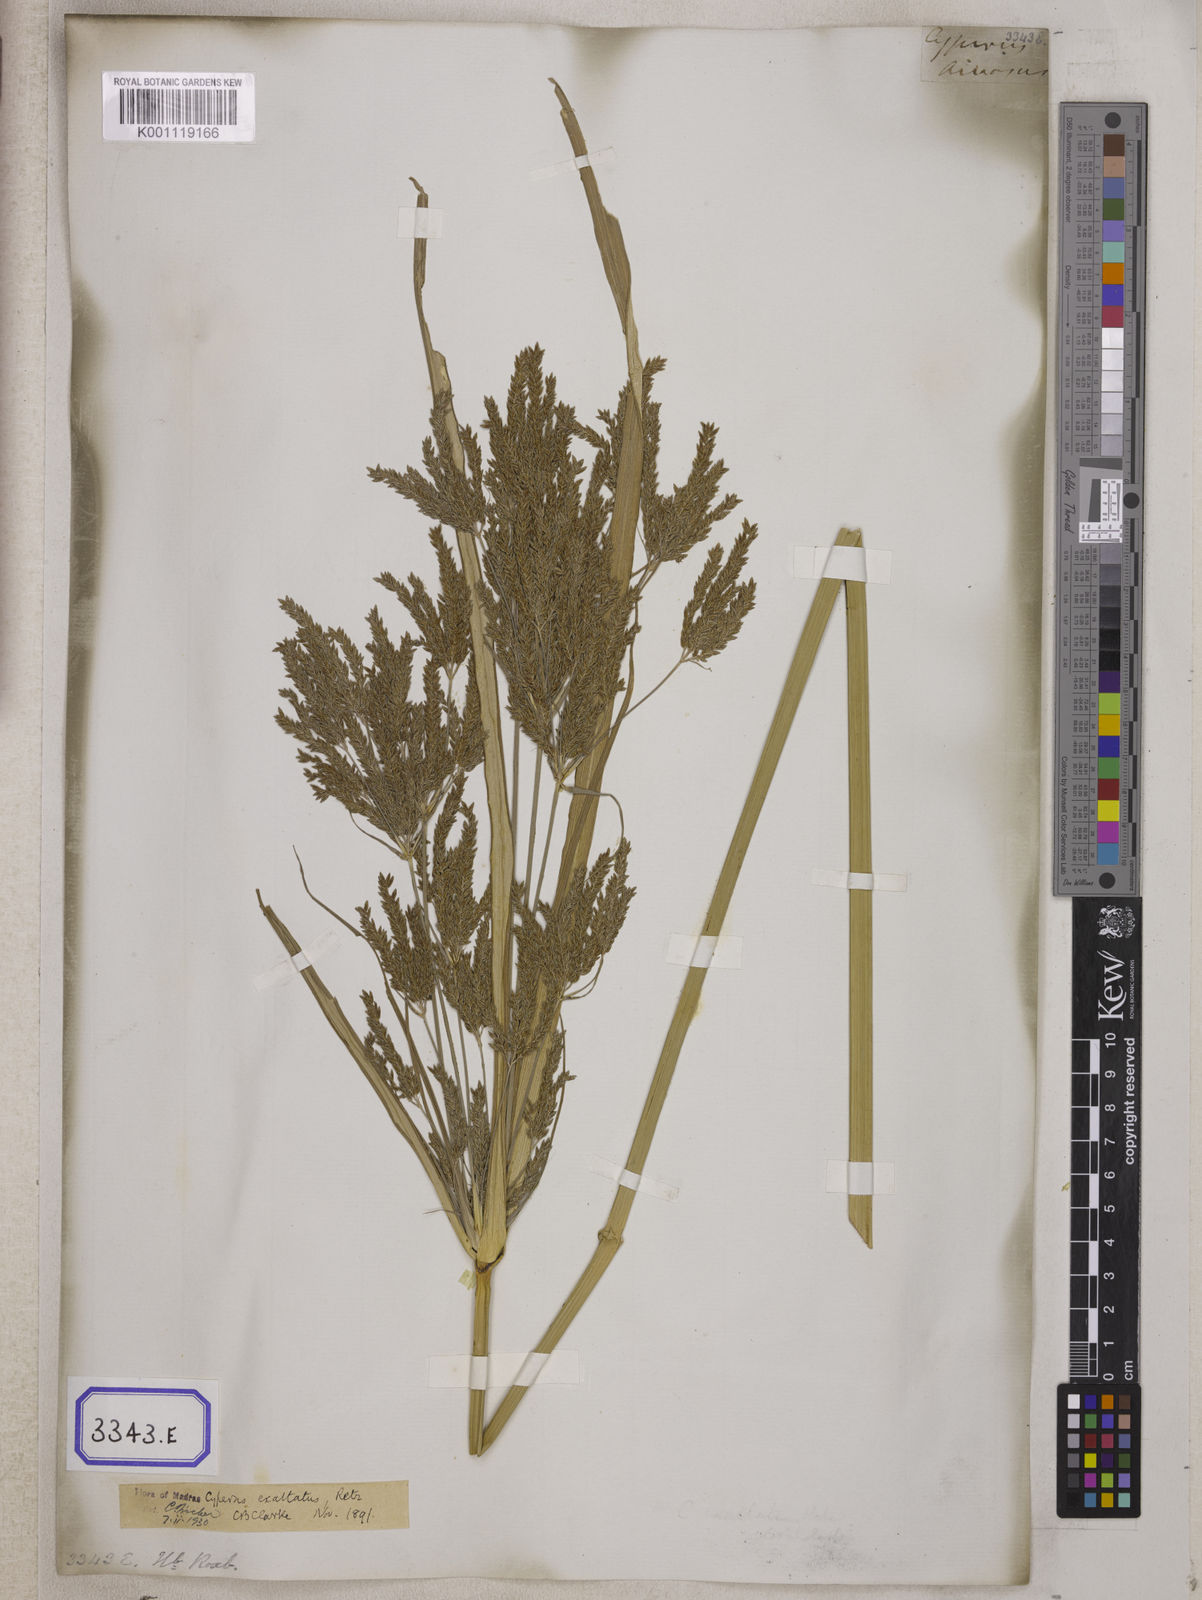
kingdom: Plantae
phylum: Tracheophyta
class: Liliopsida
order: Poales
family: Cyperaceae
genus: Cyperus
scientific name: Cyperus
